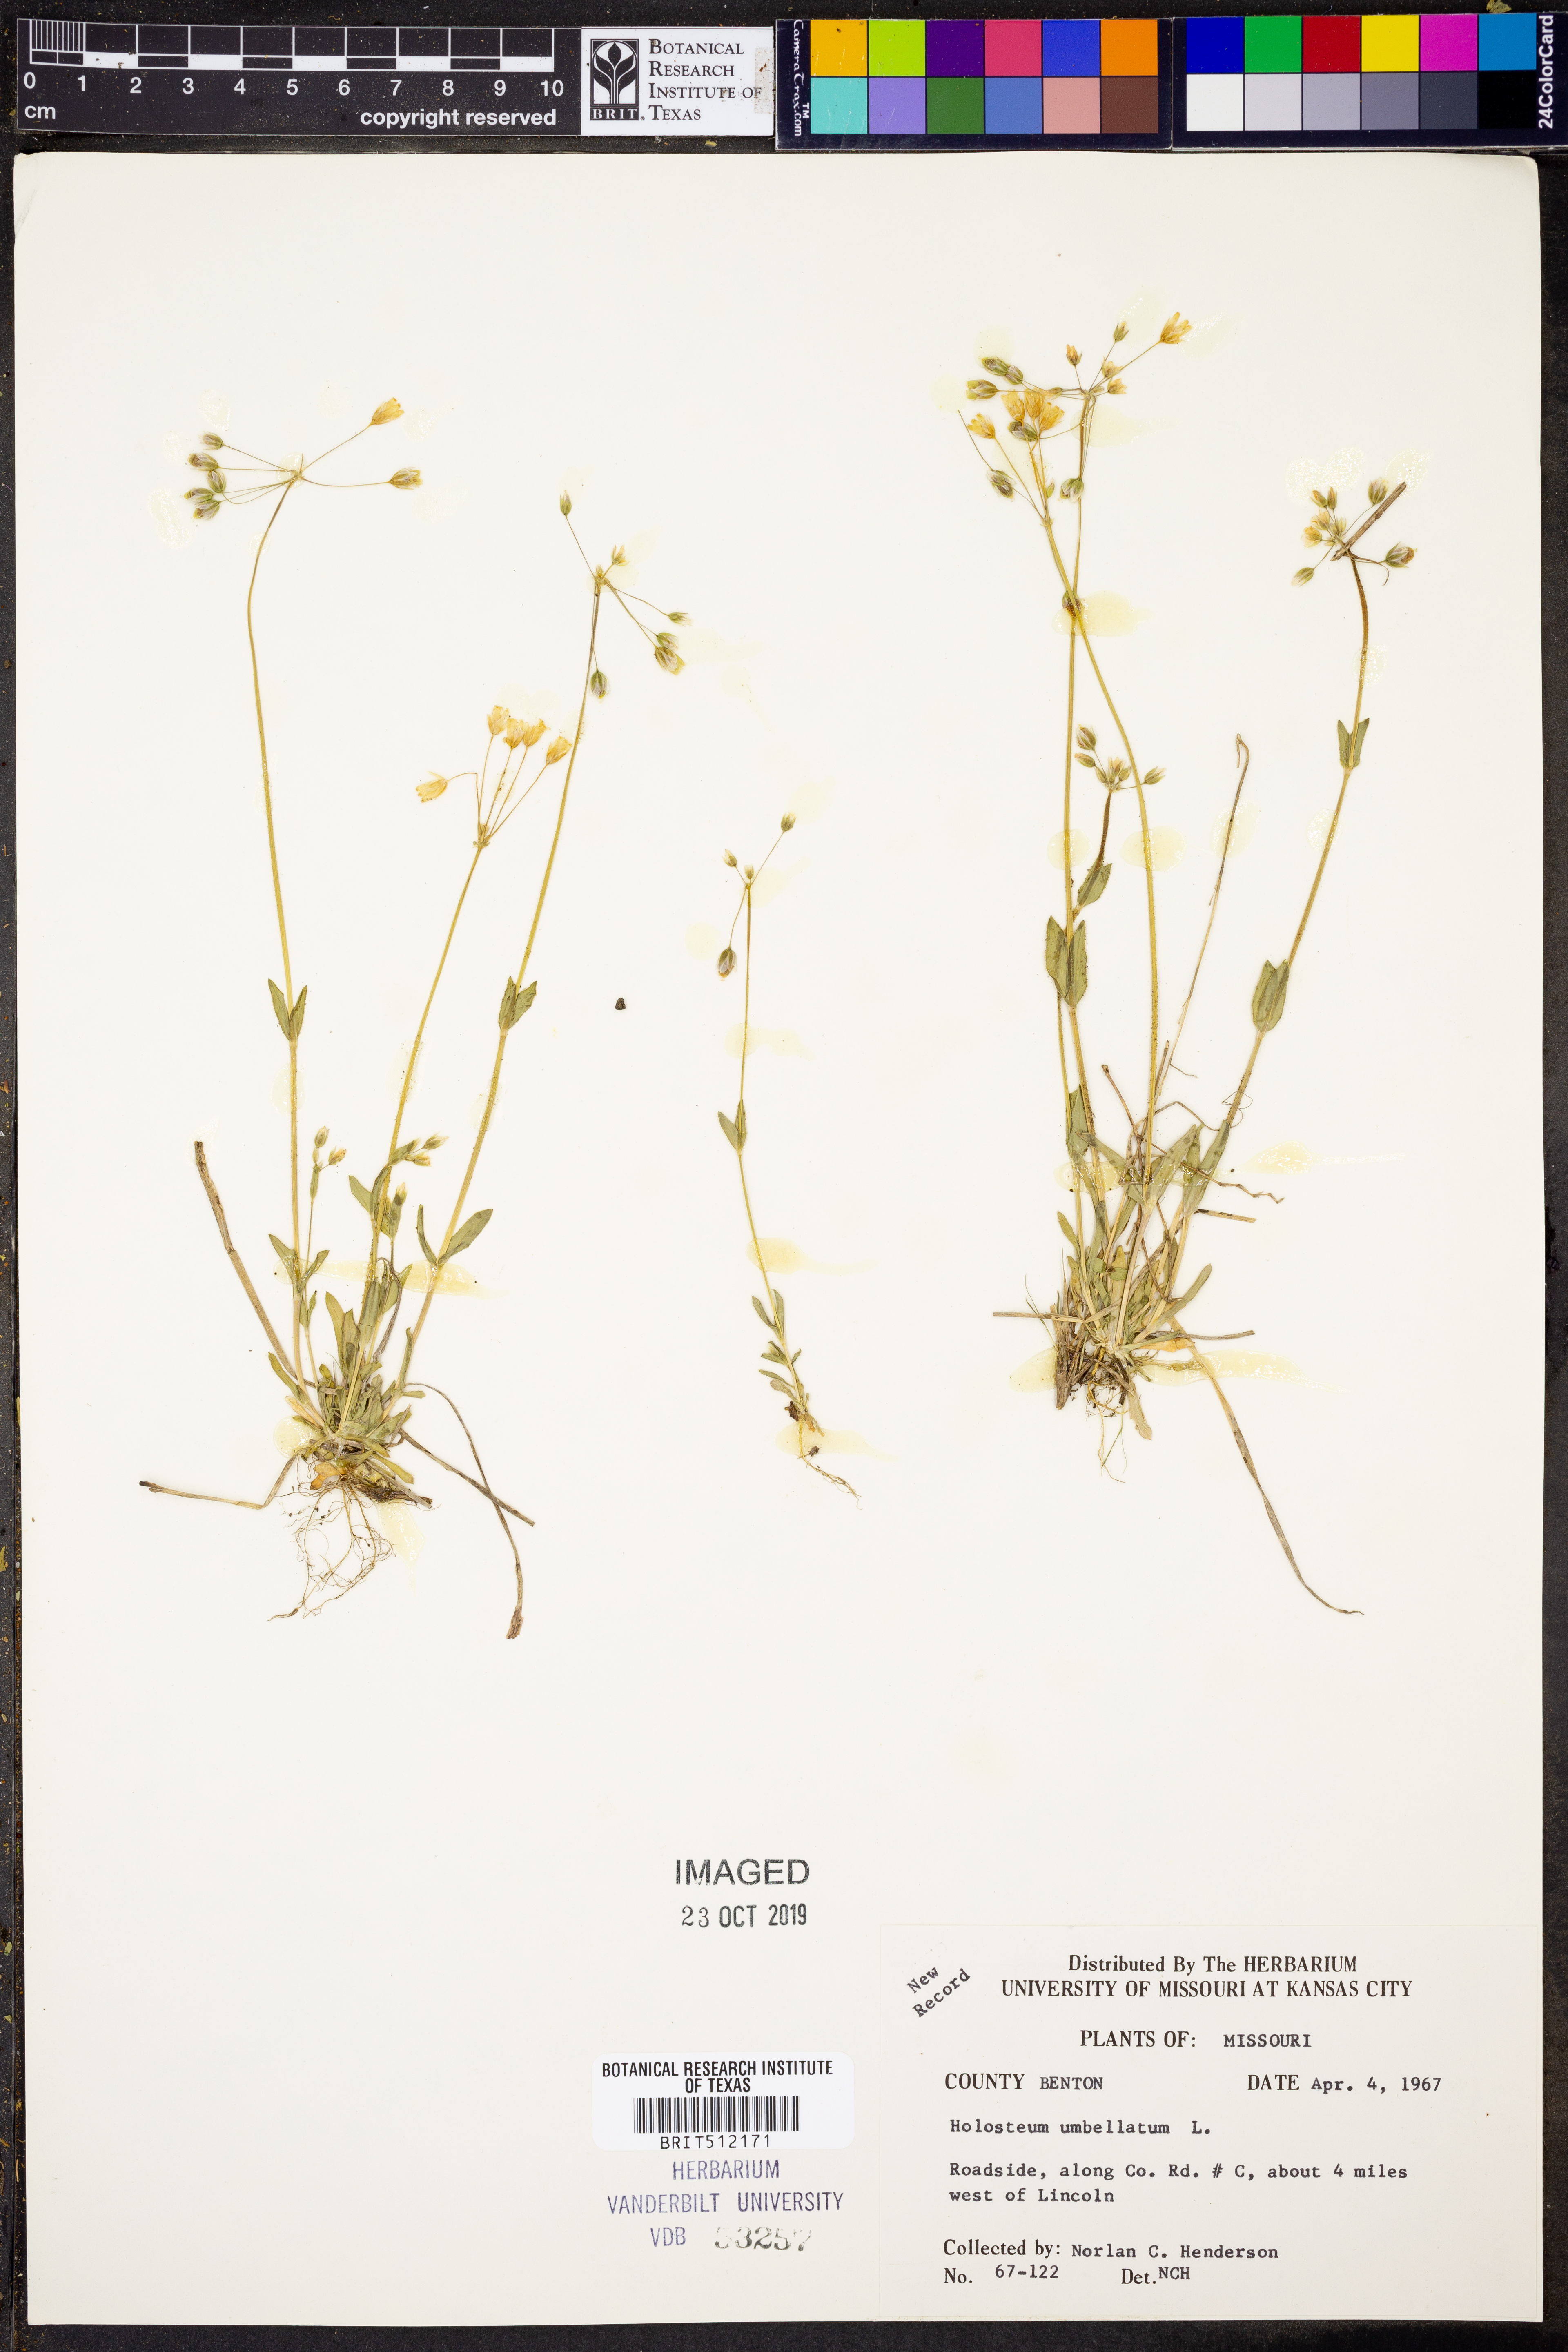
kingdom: Plantae
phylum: Tracheophyta
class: Magnoliopsida
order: Caryophyllales
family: Caryophyllaceae
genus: Holosteum
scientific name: Holosteum umbellatum
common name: Jagged chickweed
